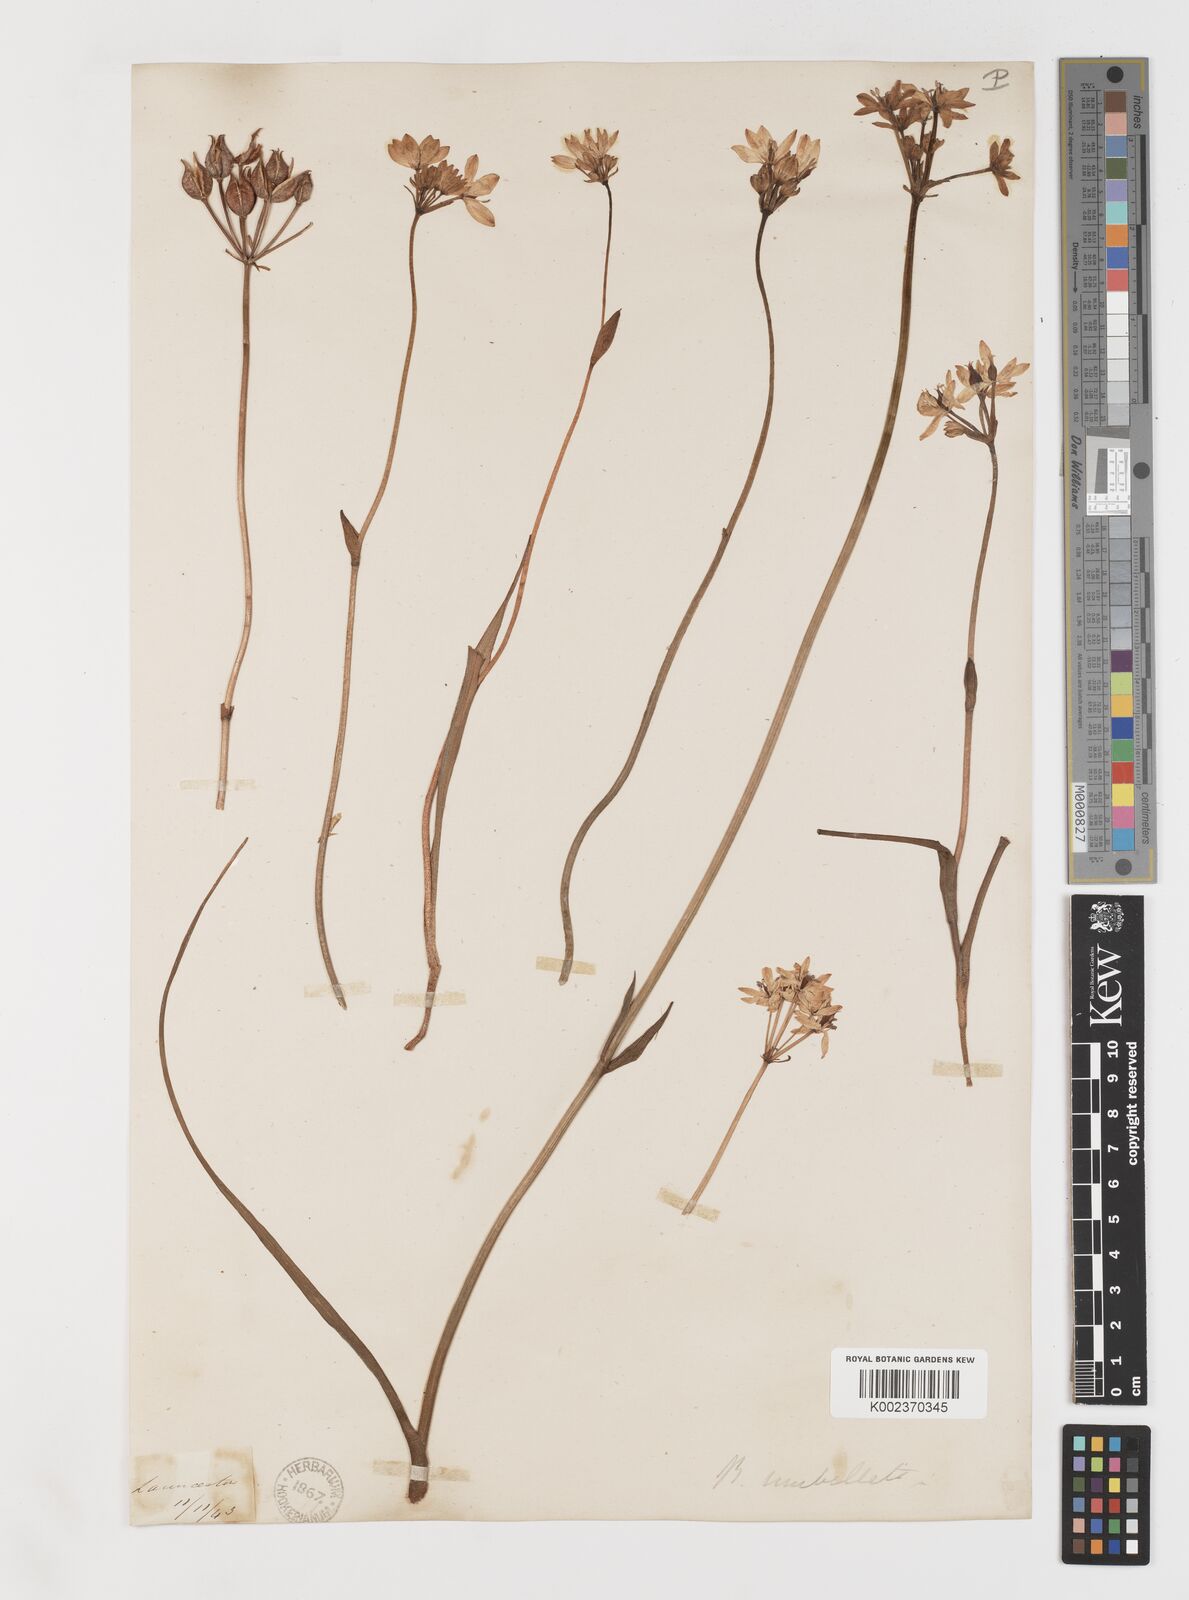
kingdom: Plantae
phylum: Tracheophyta
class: Liliopsida
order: Liliales
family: Colchicaceae
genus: Burchardia
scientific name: Burchardia umbellata
